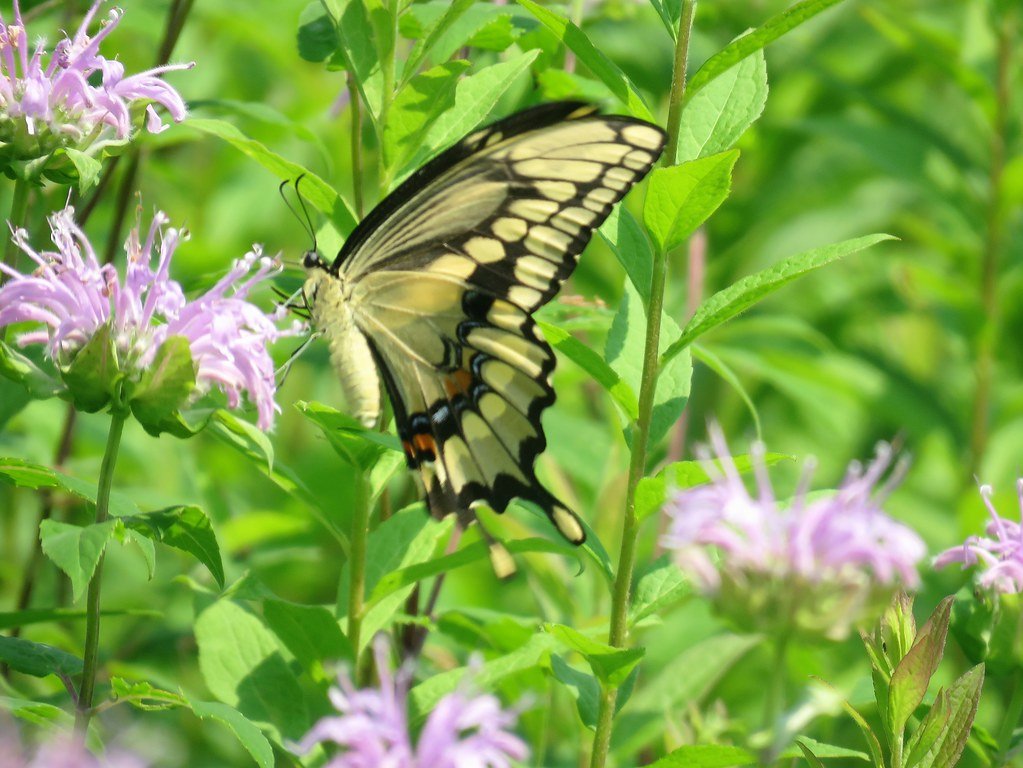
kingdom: Animalia
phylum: Arthropoda
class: Insecta
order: Lepidoptera
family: Papilionidae
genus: Papilio
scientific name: Papilio cresphontes
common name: Eastern Giant Swallowtail
